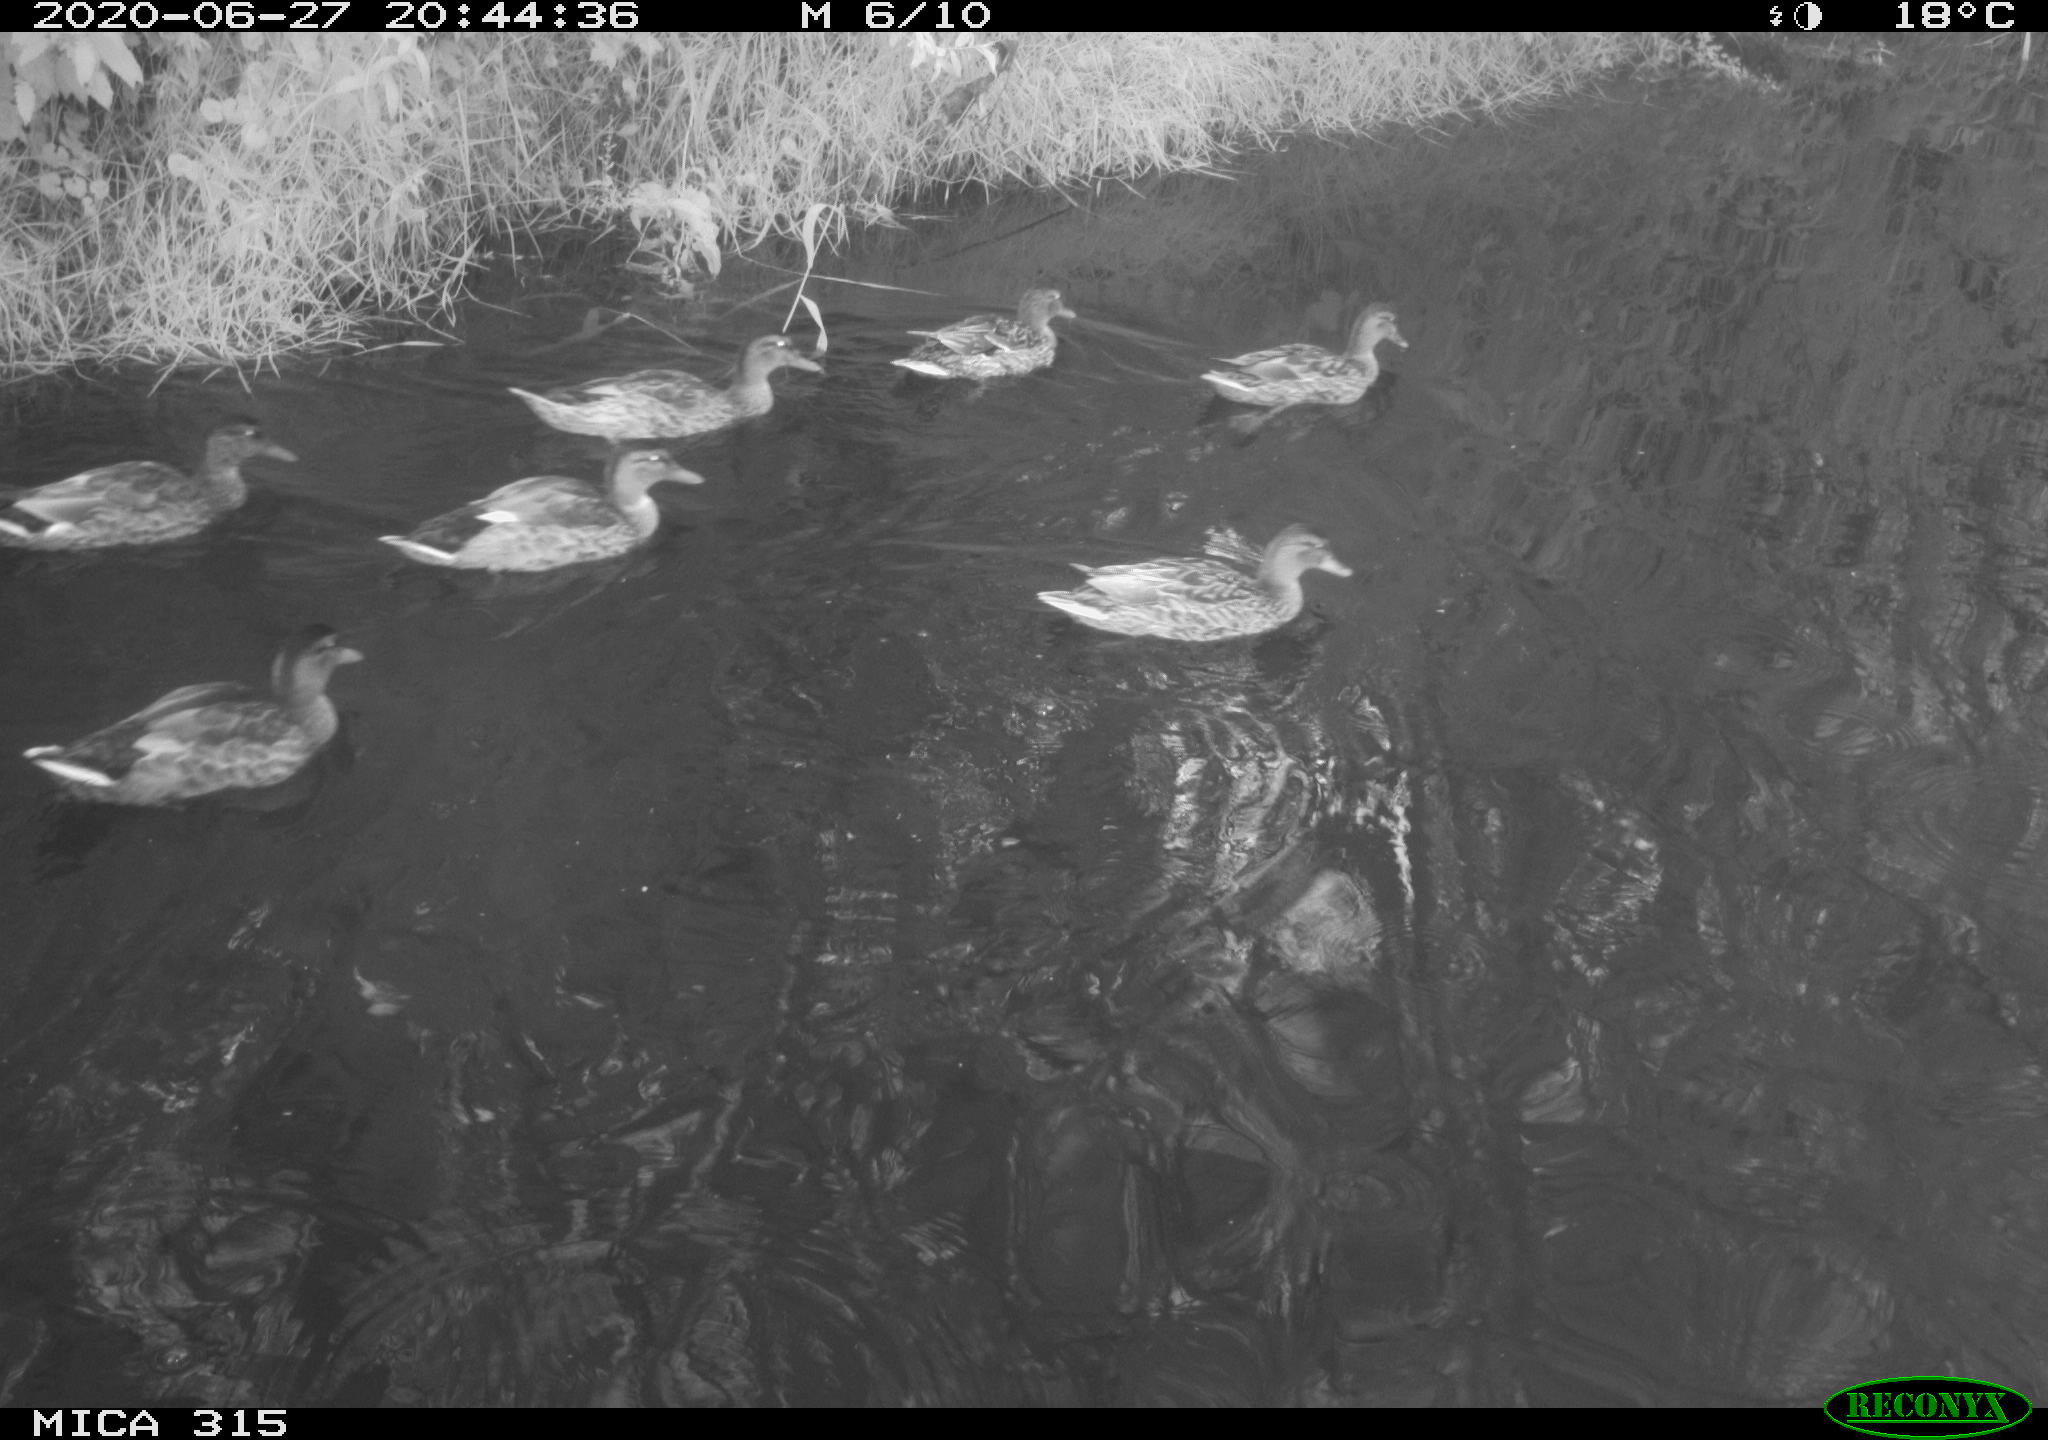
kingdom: Animalia
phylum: Chordata
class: Aves
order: Anseriformes
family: Anatidae
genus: Anas
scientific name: Anas platyrhynchos
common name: Mallard
